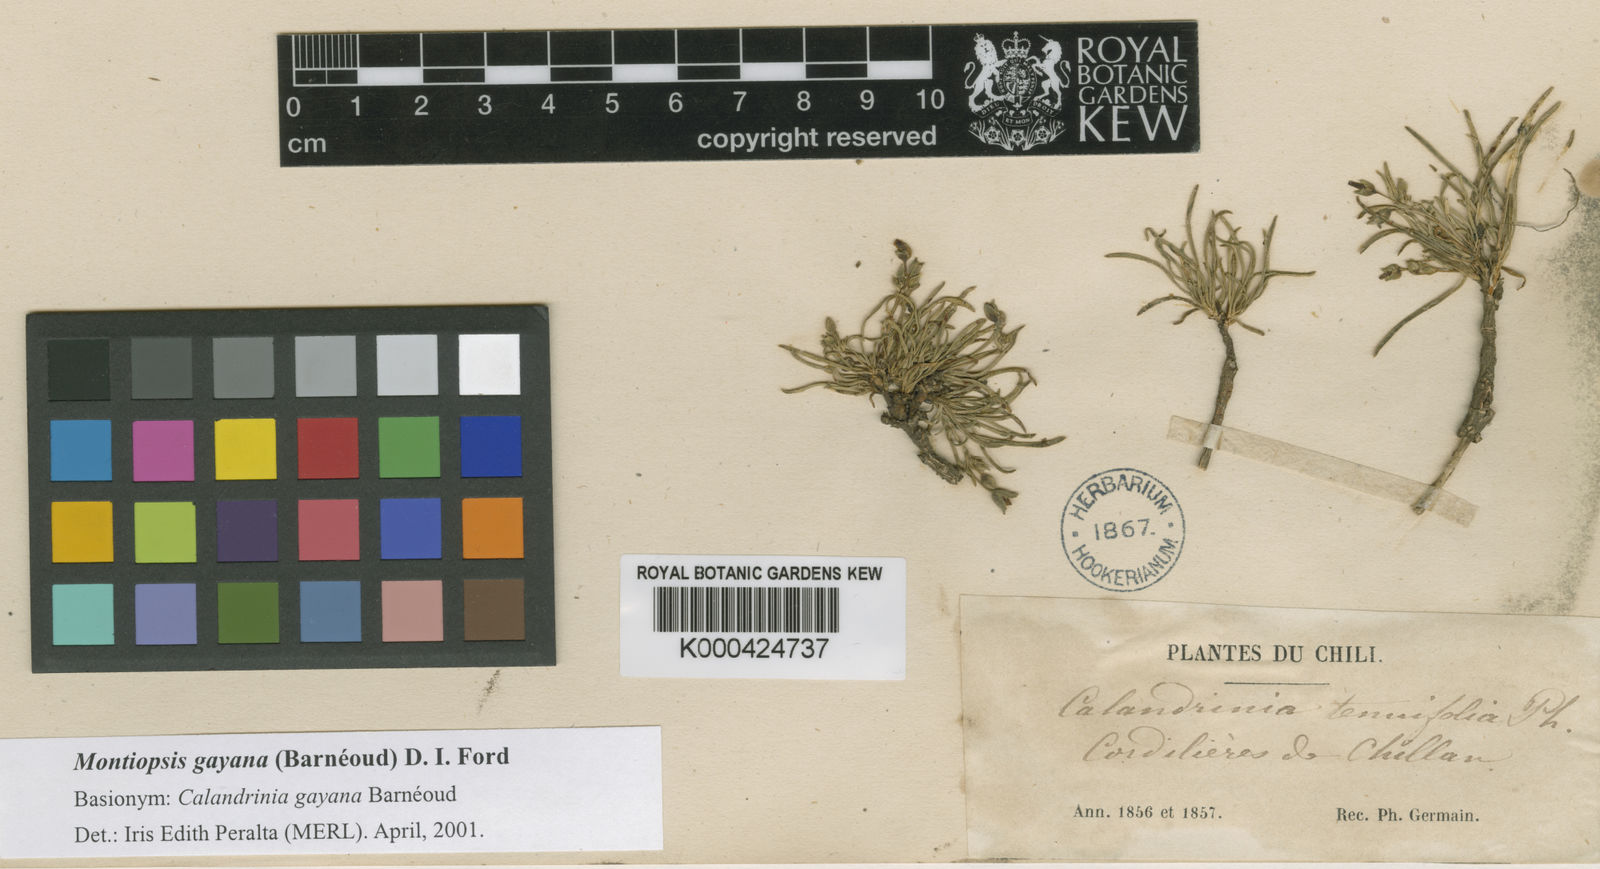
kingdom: Plantae
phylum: Tracheophyta
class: Magnoliopsida
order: Caryophyllales
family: Montiaceae
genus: Montiopsis
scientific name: Montiopsis
